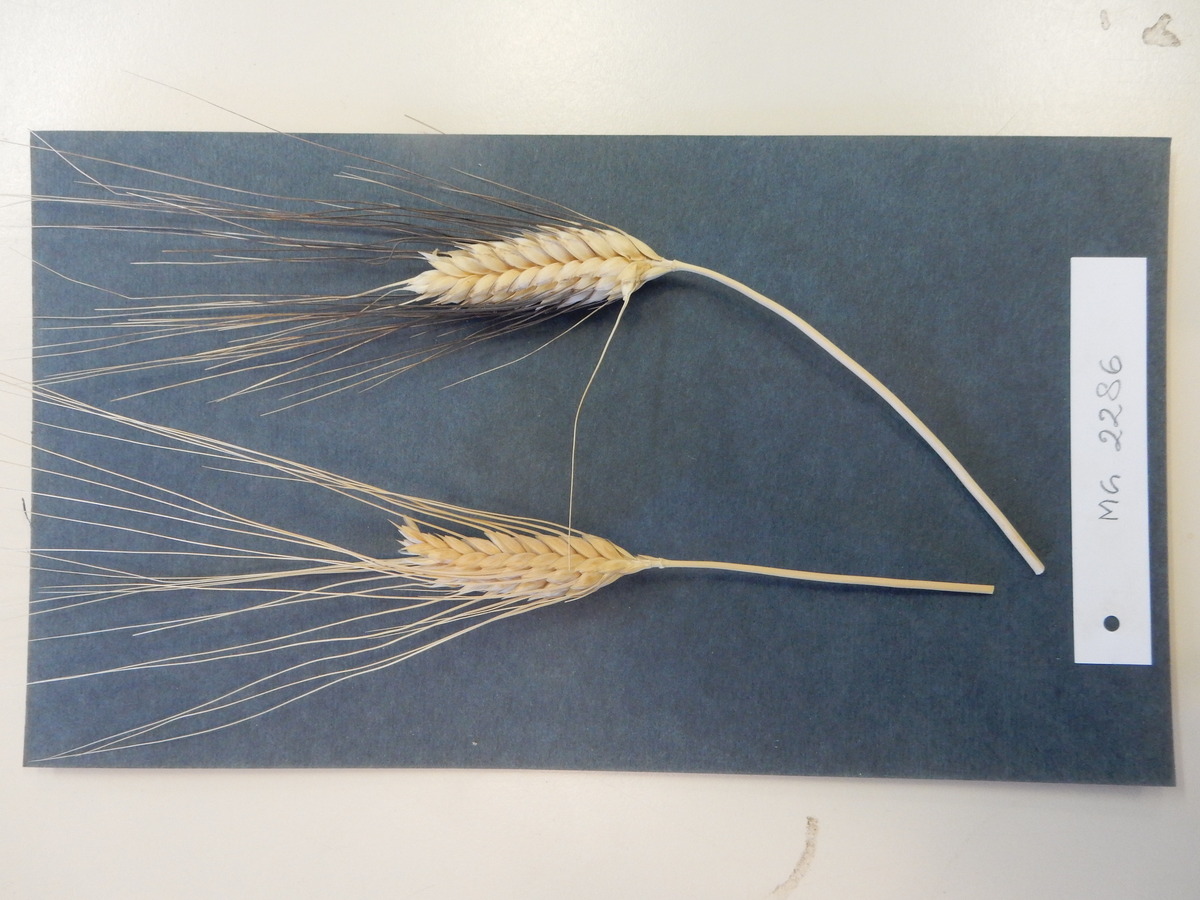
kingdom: Plantae
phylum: Tracheophyta
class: Liliopsida
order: Poales
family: Poaceae
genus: Triticum
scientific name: Triticum turgidum
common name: Wheat
